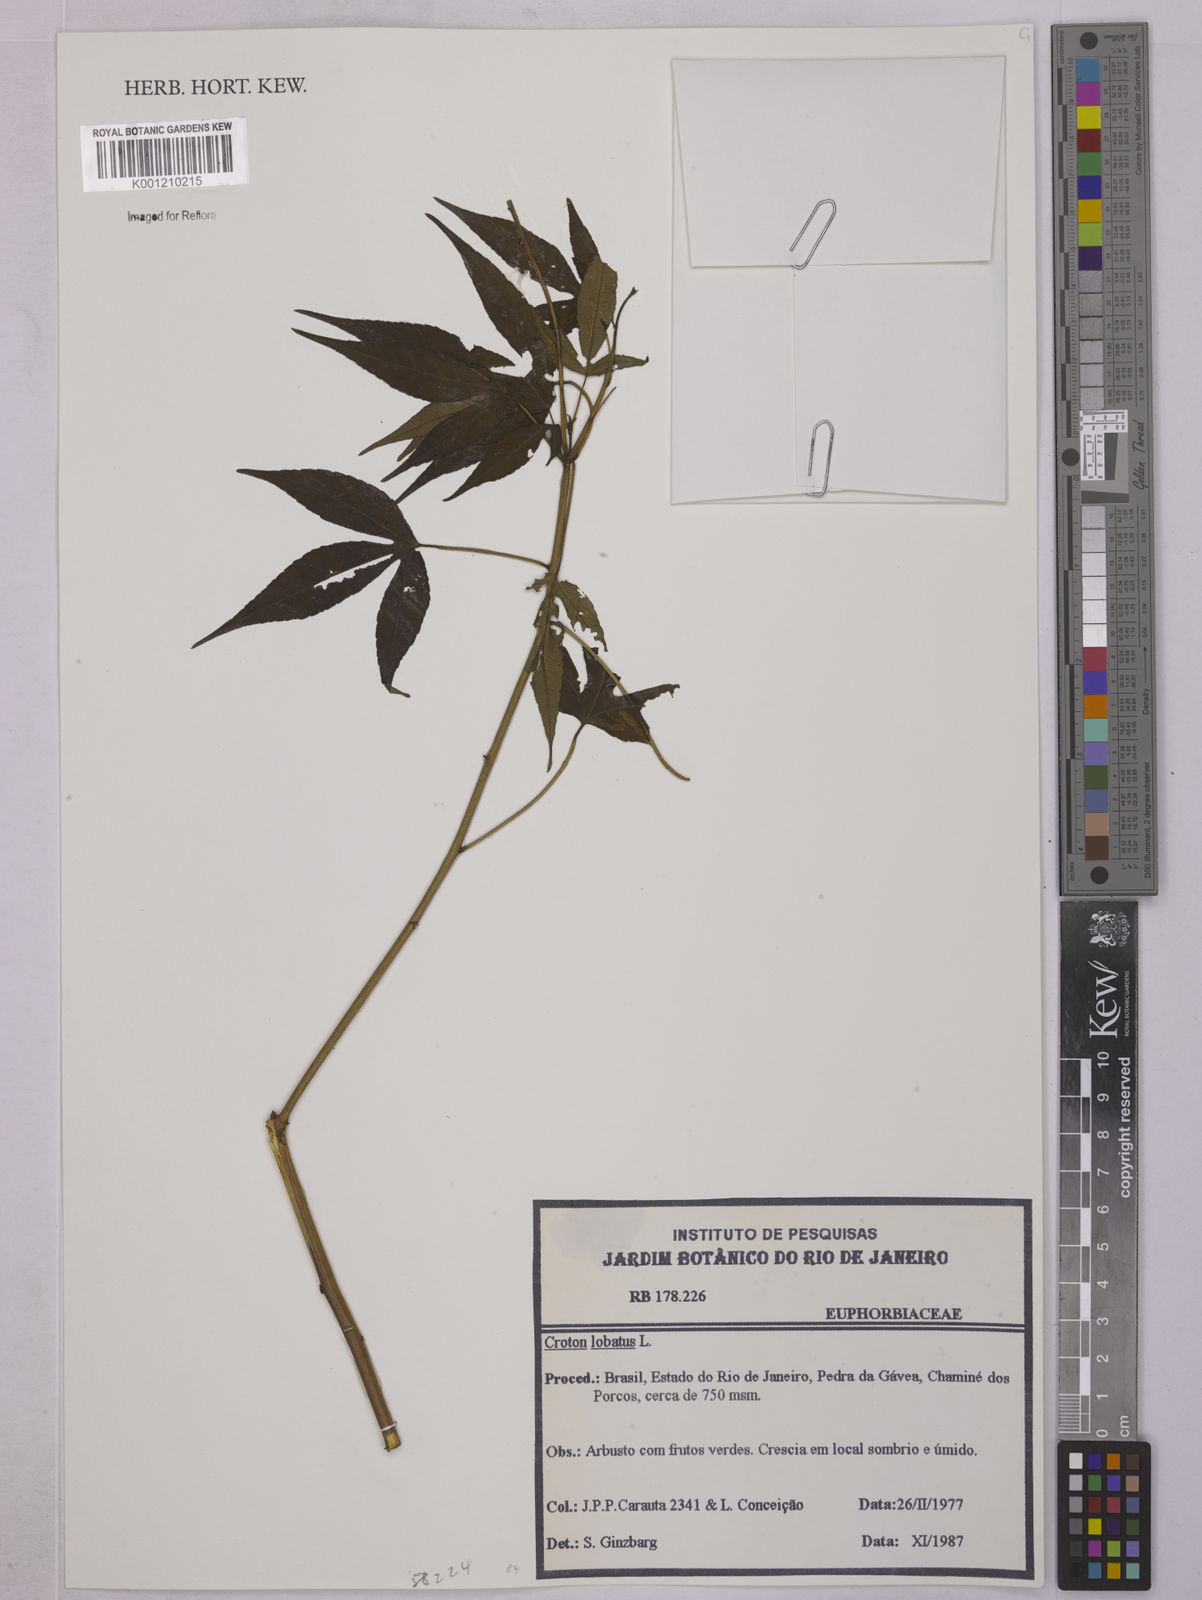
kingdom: Plantae
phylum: Tracheophyta
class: Magnoliopsida
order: Malpighiales
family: Euphorbiaceae
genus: Astraea
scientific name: Astraea lobata
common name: Lobed croton
